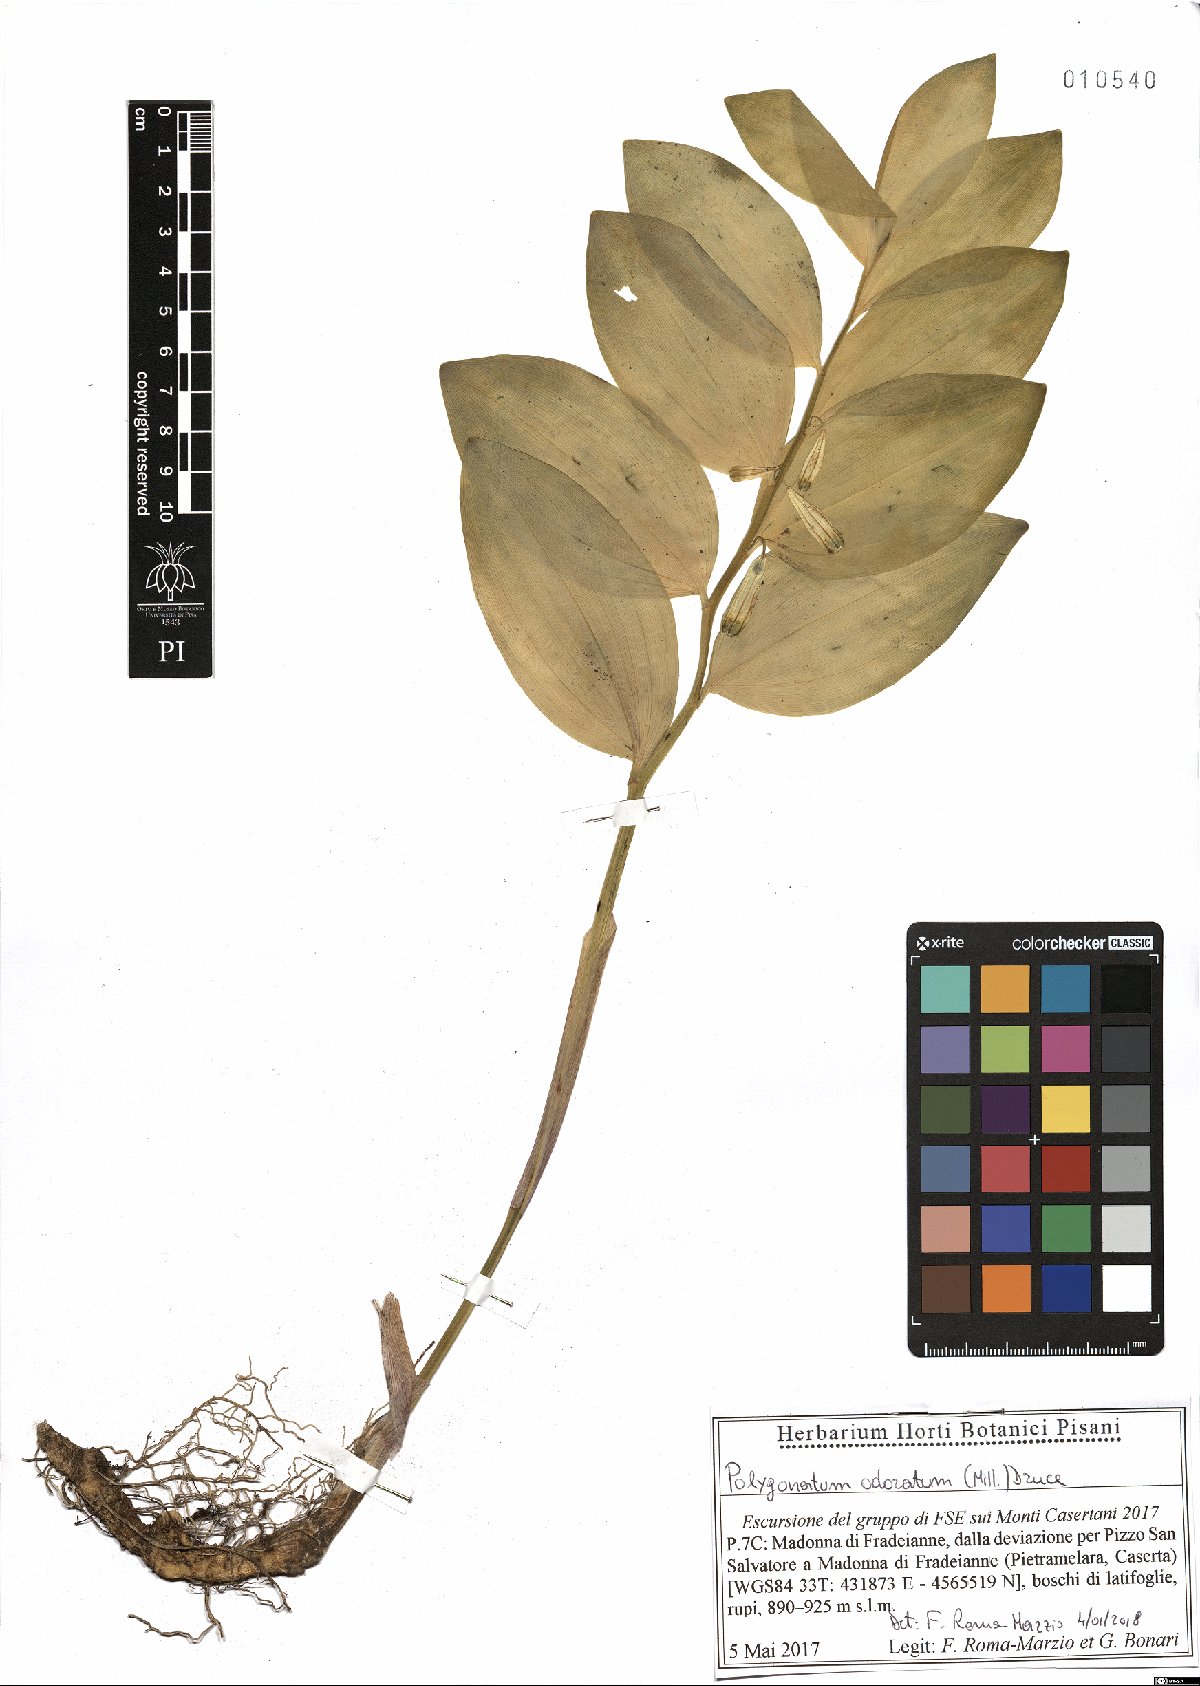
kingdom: Plantae
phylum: Tracheophyta
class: Liliopsida
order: Asparagales
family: Asparagaceae
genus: Polygonatum
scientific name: Polygonatum odoratum
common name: Angular solomon's-seal
